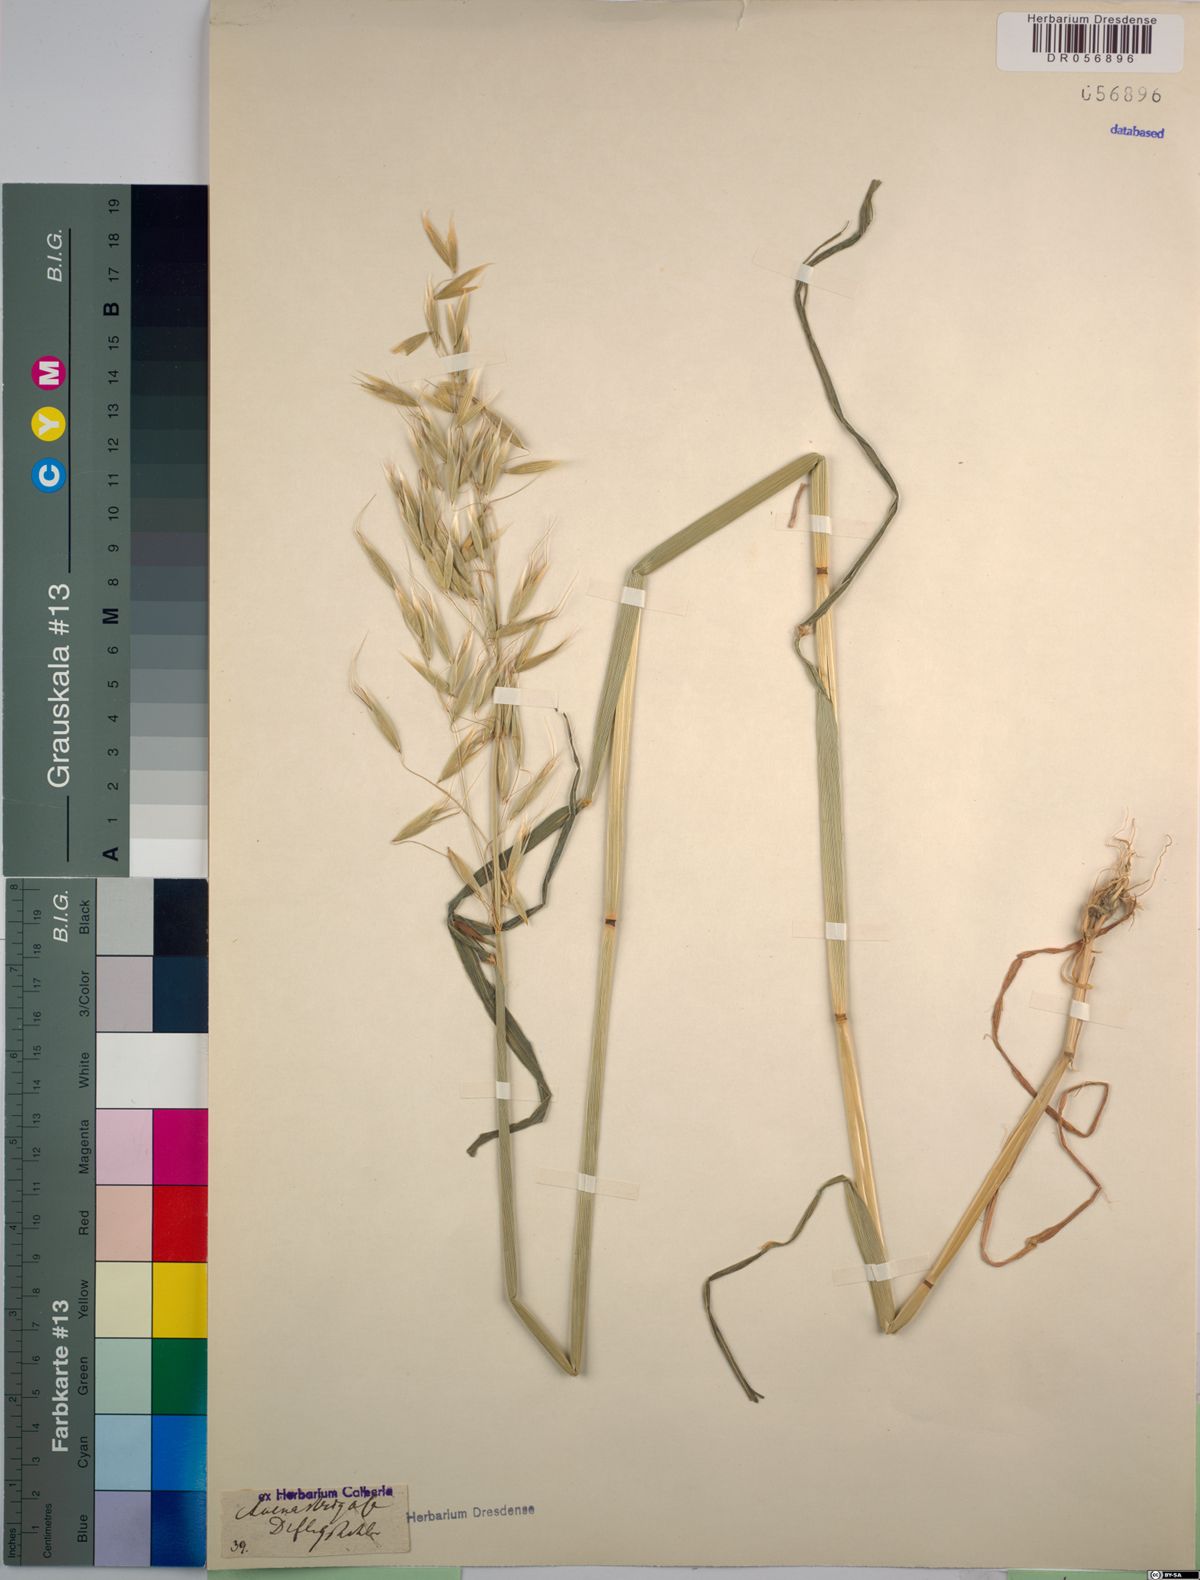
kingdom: Plantae
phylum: Tracheophyta
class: Liliopsida
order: Poales
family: Poaceae
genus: Avena
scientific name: Avena strigosa
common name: Bristle oat
